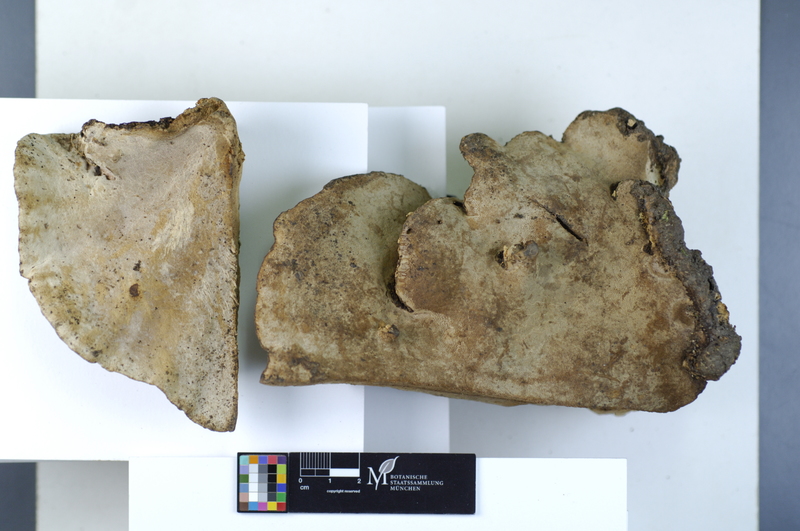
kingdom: Plantae
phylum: Tracheophyta
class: Magnoliopsida
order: Lamiales
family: Oleaceae
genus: Fraxinus
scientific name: Fraxinus
